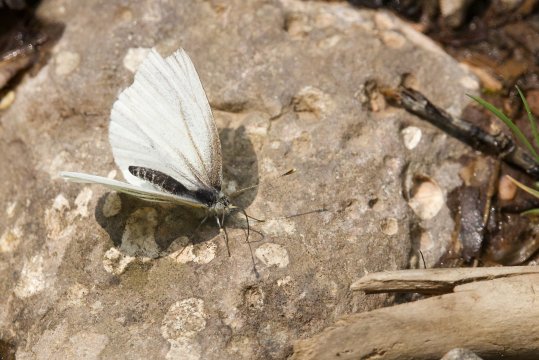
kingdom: Animalia
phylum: Arthropoda
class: Insecta
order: Lepidoptera
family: Pieridae
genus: Pieris
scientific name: Pieris oleracea
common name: Mustard White
